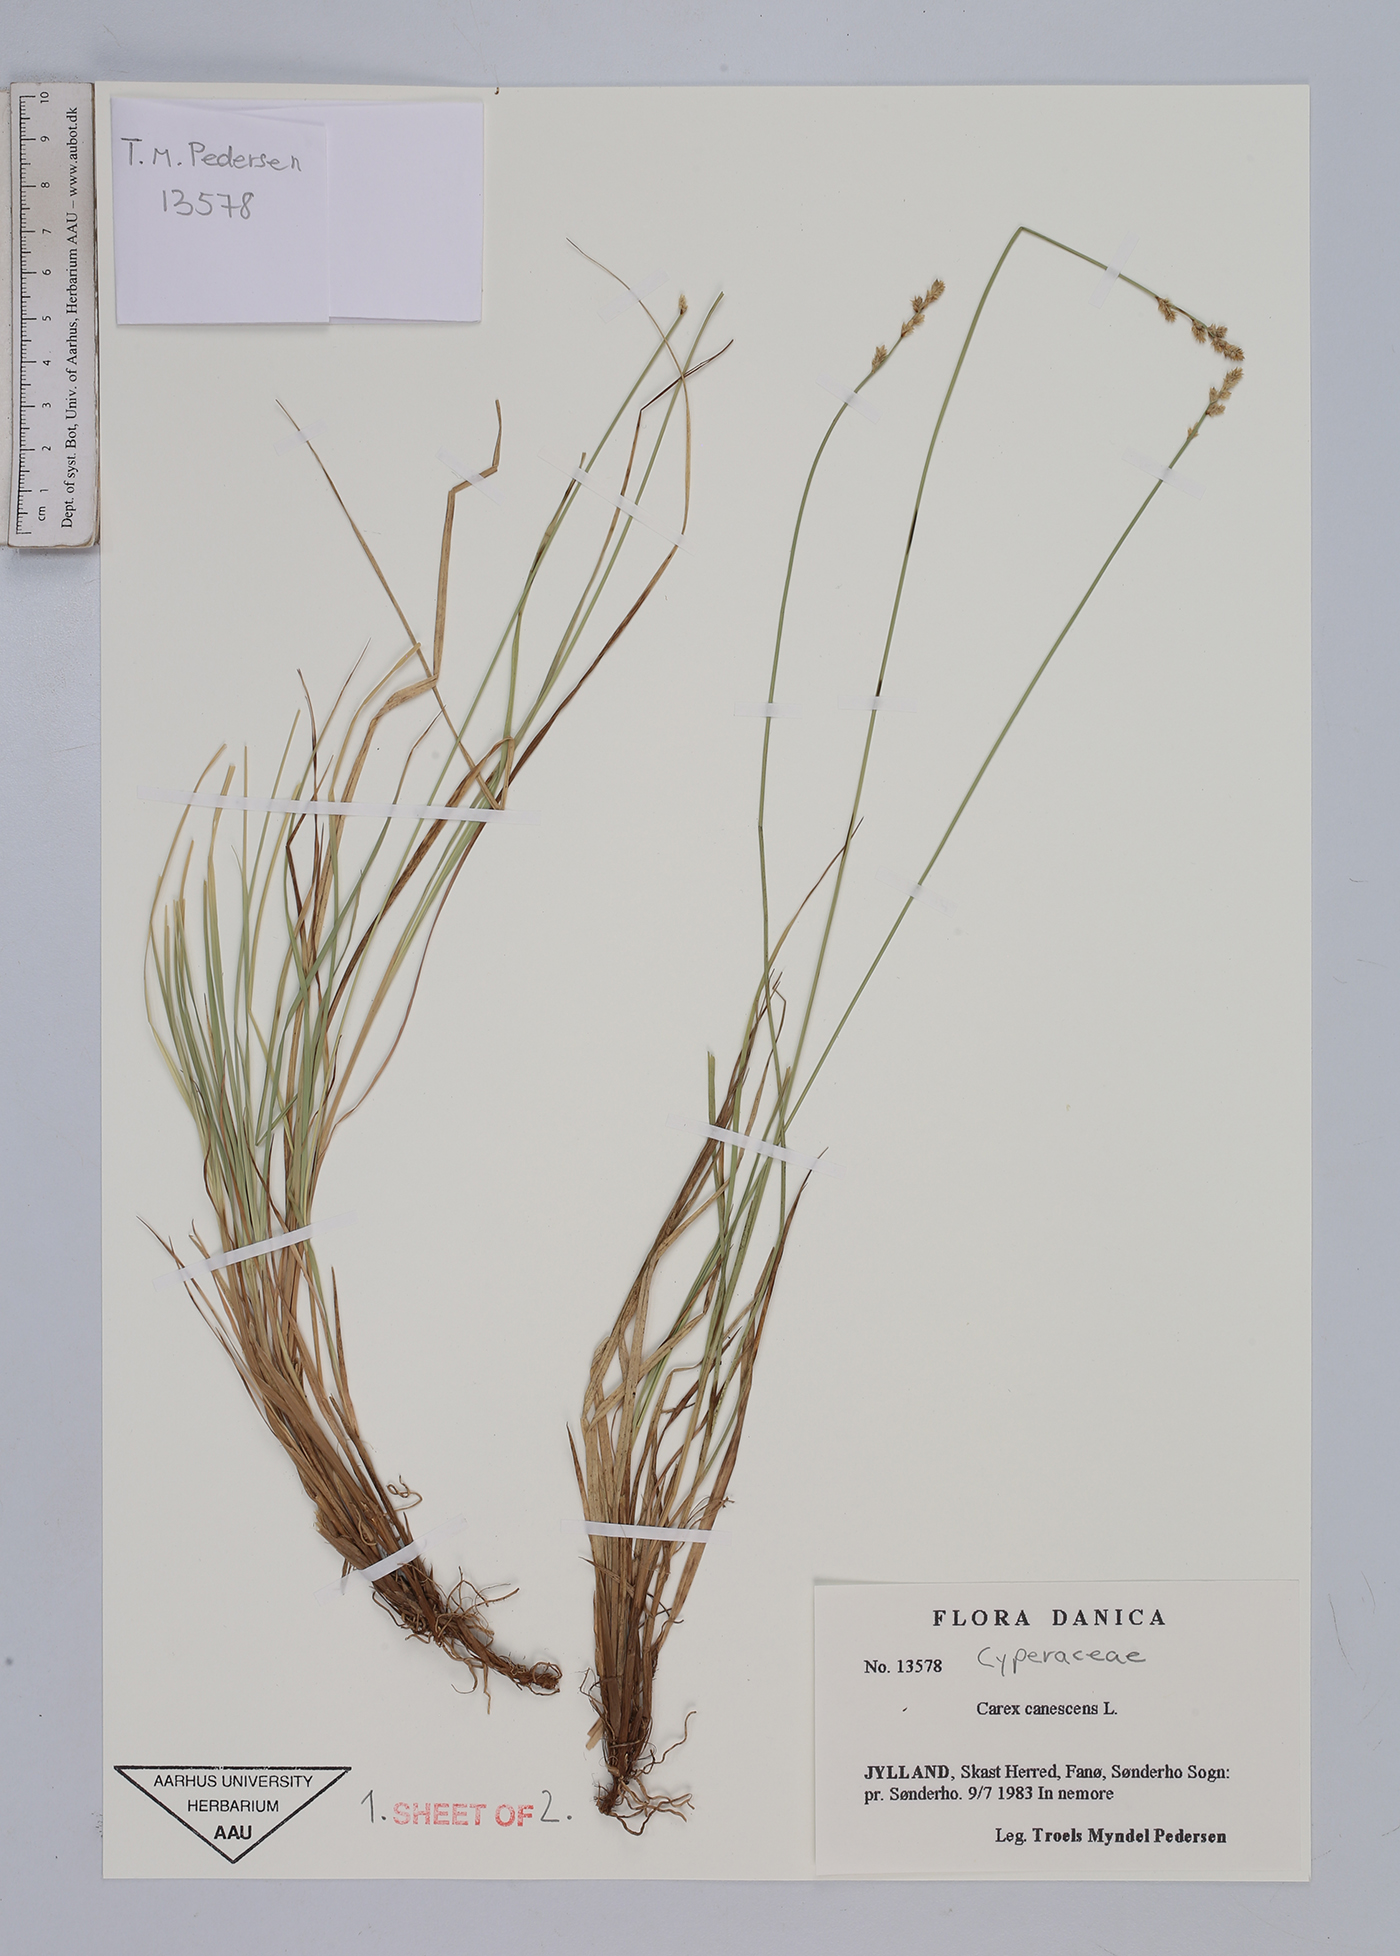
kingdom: Plantae
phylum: Tracheophyta
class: Liliopsida
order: Poales
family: Cyperaceae
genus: Carex
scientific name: Carex canescens
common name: White sedge
